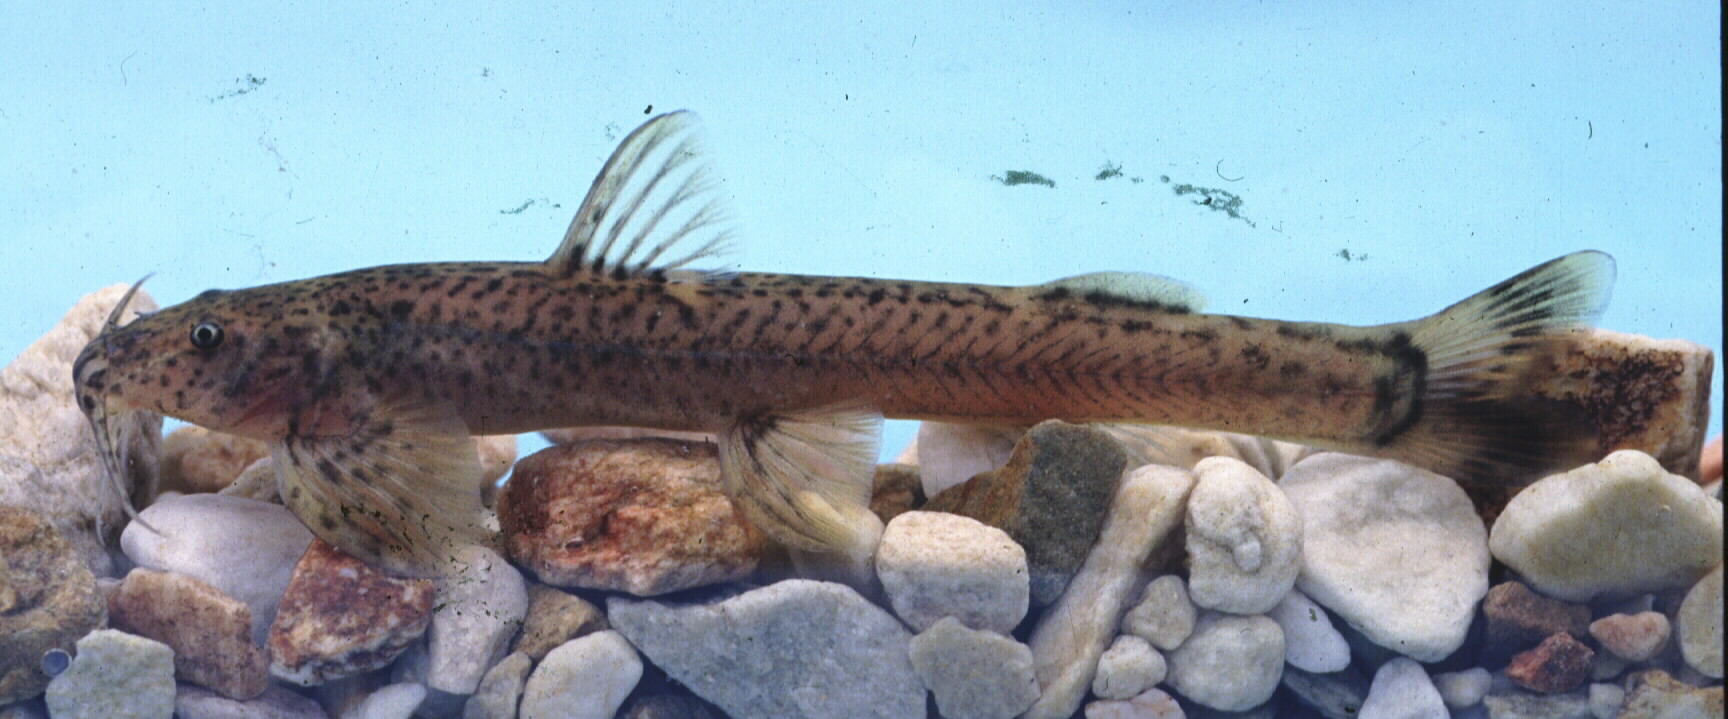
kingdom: Animalia
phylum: Chordata
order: Siluriformes
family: Amphiliidae
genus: Amphilius
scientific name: Amphilius natalensis
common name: Natal mountain catfish
